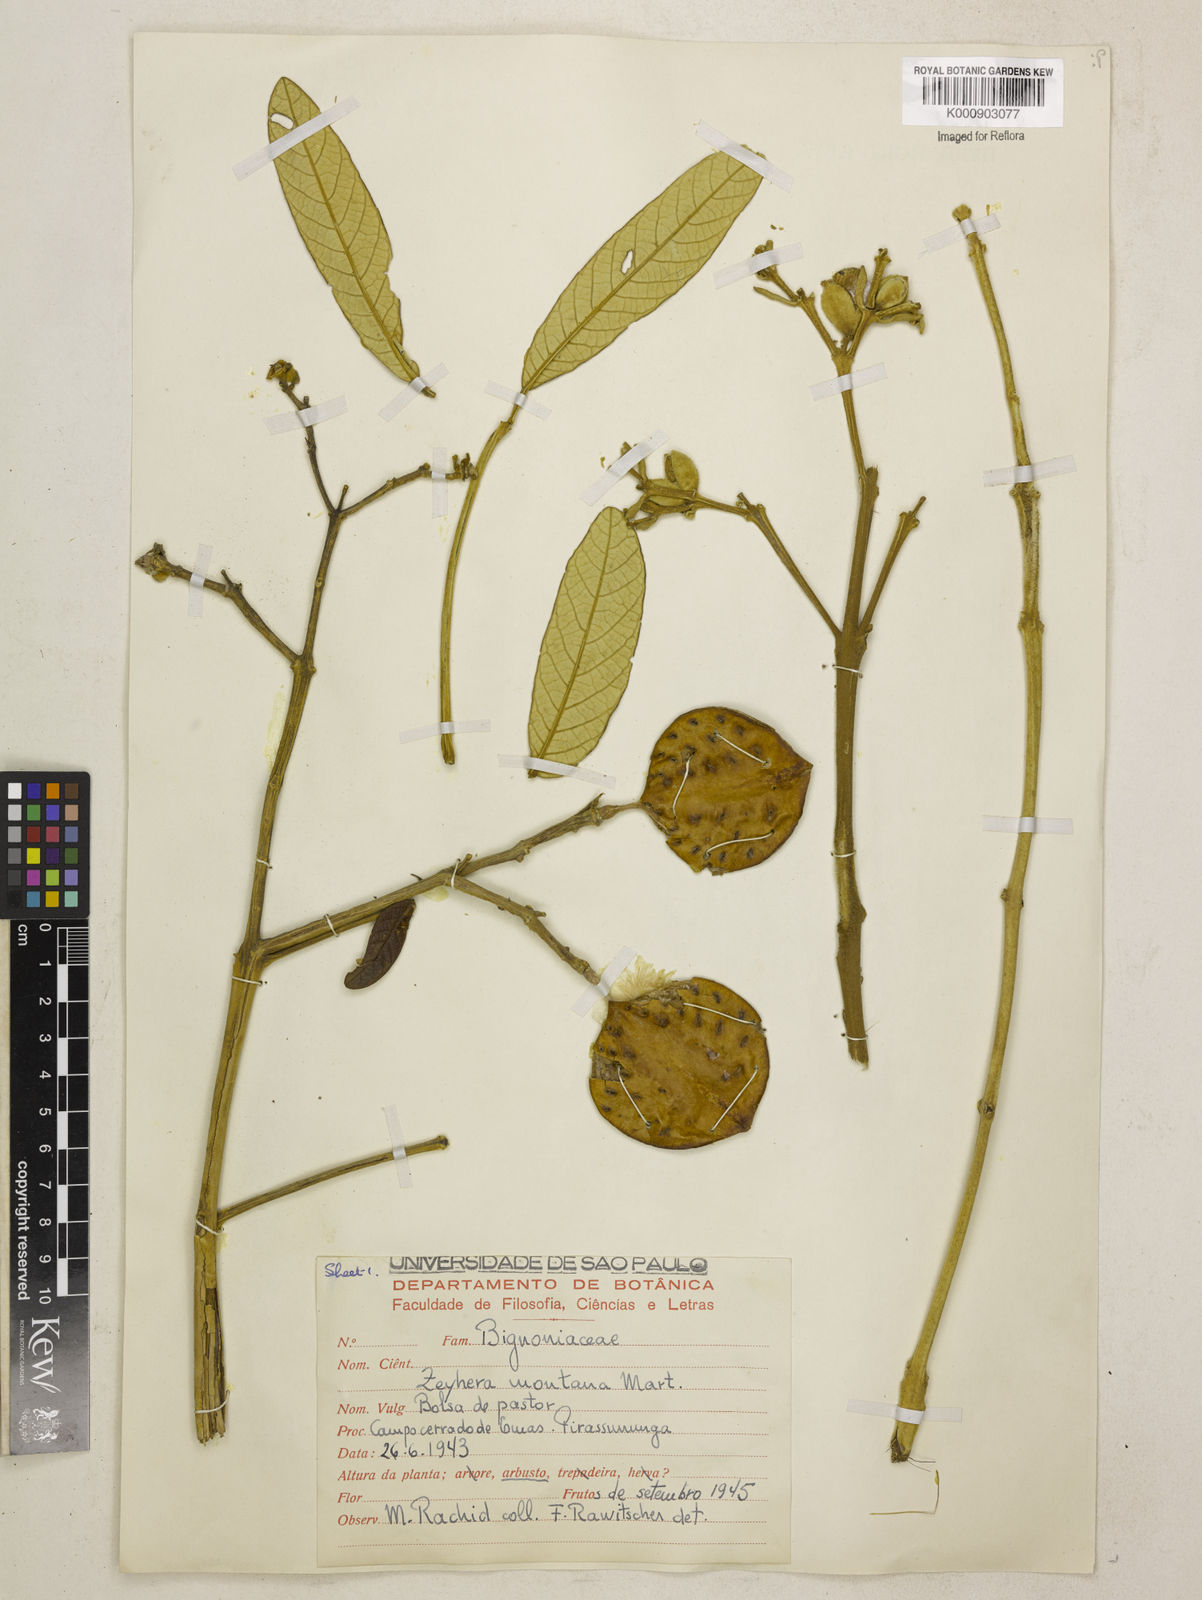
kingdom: Plantae
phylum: Tracheophyta
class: Magnoliopsida
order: Lamiales
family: Bignoniaceae
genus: Zeyheria
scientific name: Zeyheria
